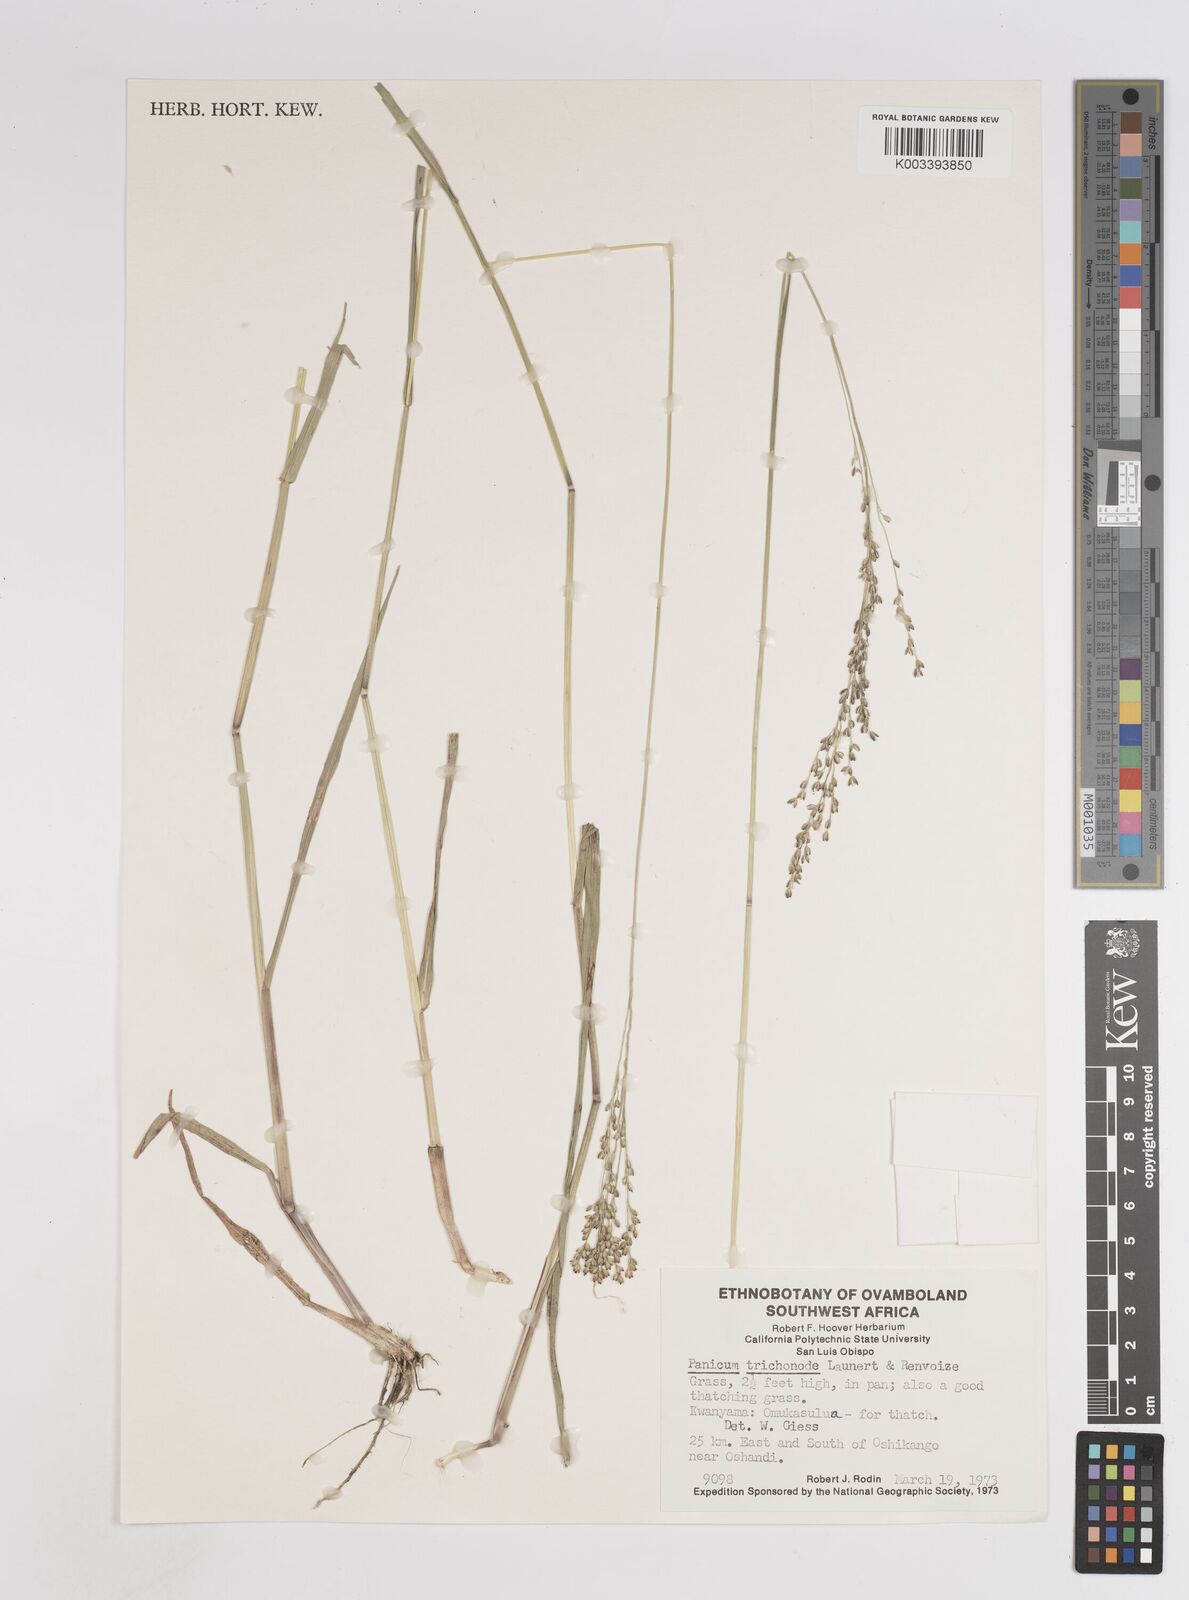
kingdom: Plantae
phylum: Tracheophyta
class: Liliopsida
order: Poales
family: Poaceae
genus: Panicum
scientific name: Panicum trichonode
